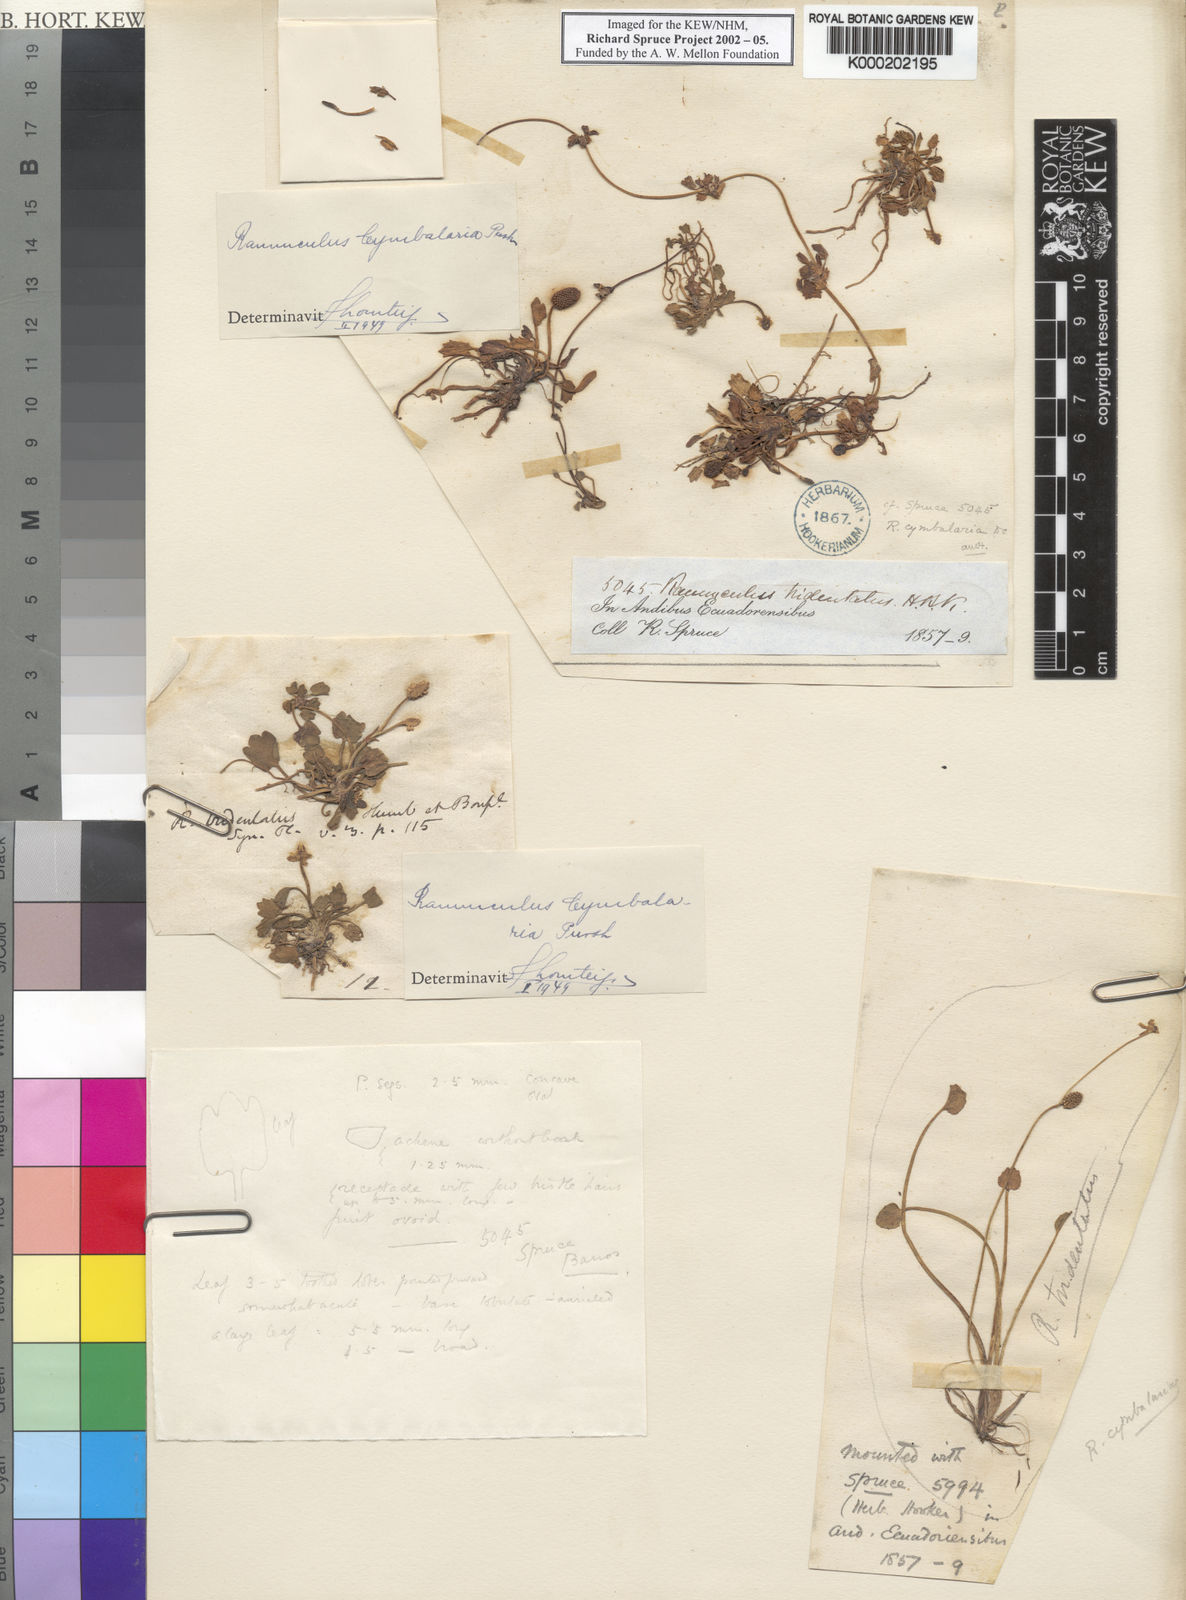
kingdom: Plantae
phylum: Tracheophyta
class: Magnoliopsida
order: Ranunculales
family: Ranunculaceae
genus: Halerpestes
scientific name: Halerpestes cymbalaria
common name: Seaside crowfoot
